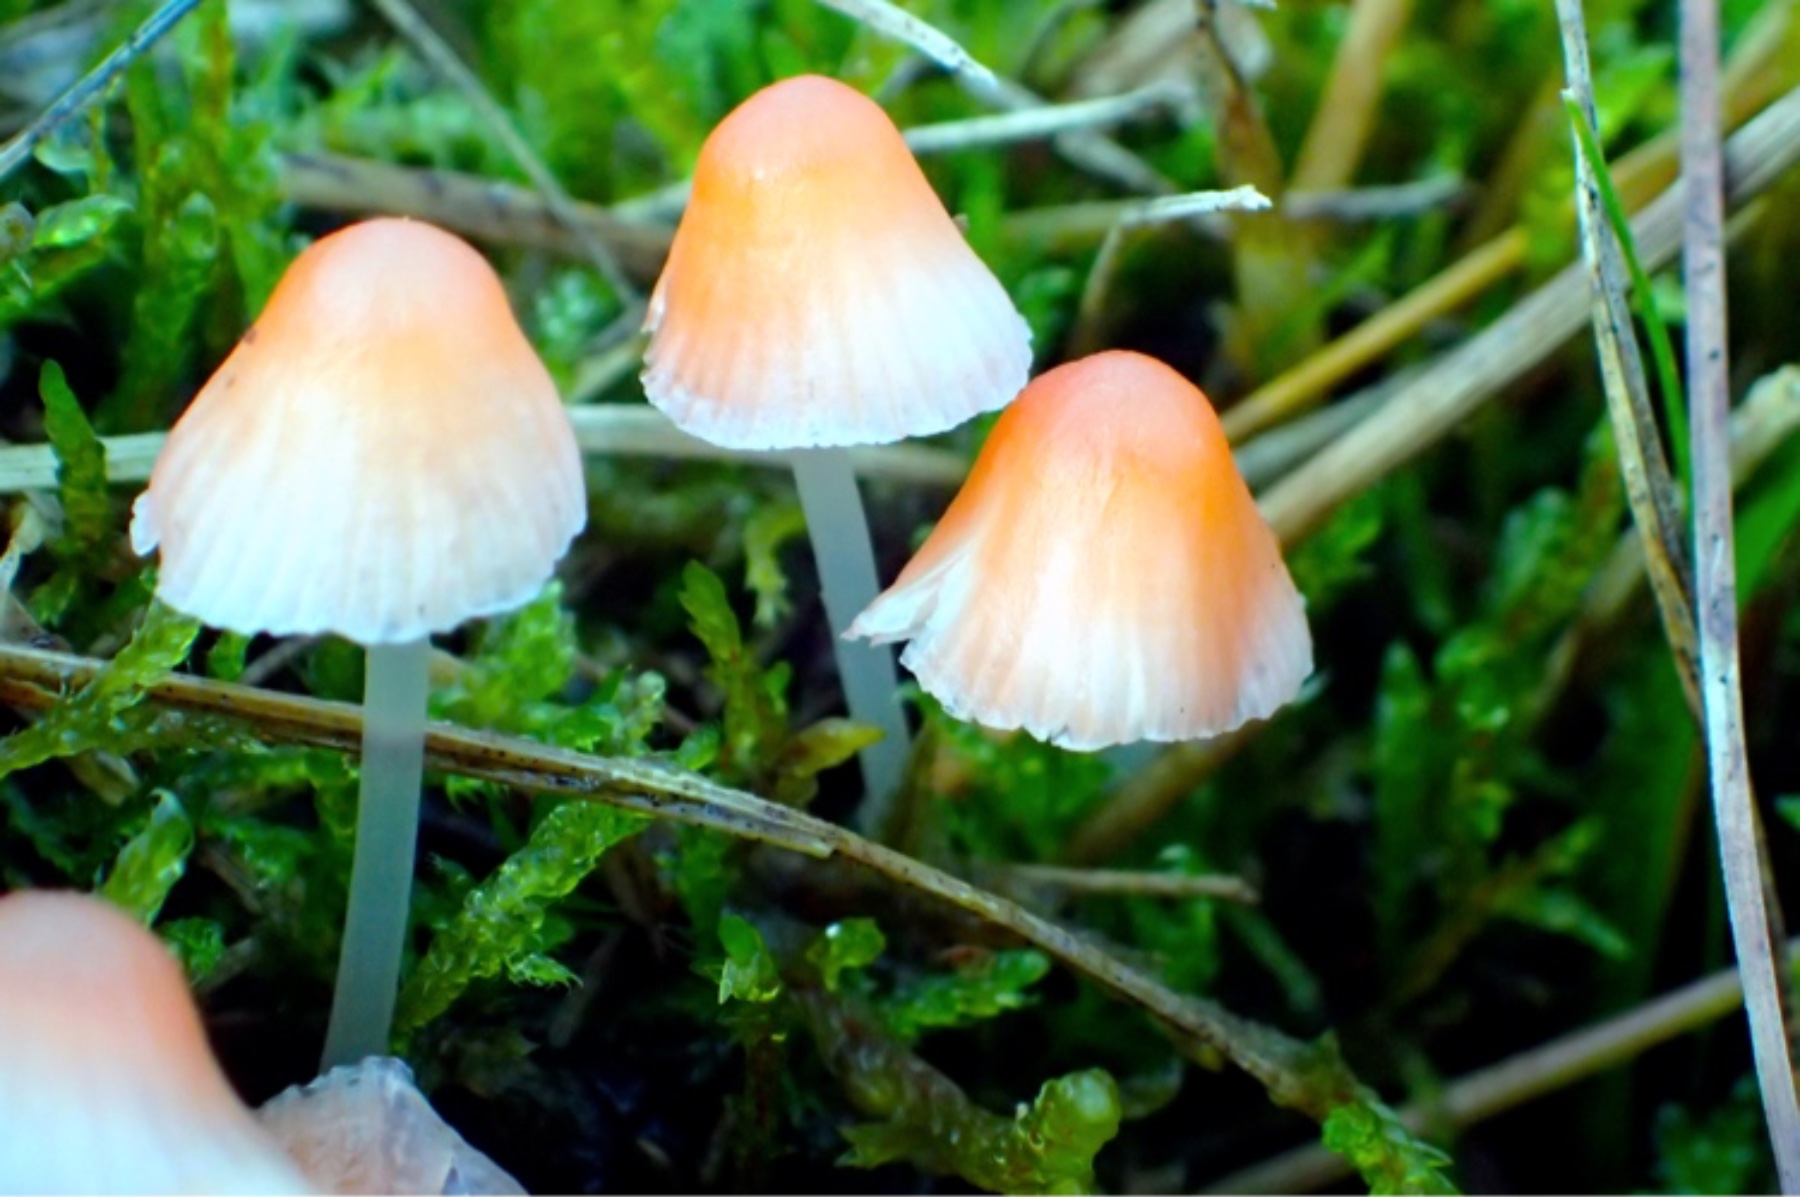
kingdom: Fungi
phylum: Basidiomycota
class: Agaricomycetes
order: Agaricales
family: Mycenaceae
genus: Atheniella
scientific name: Atheniella adonis
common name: rønnerød huesvamp
